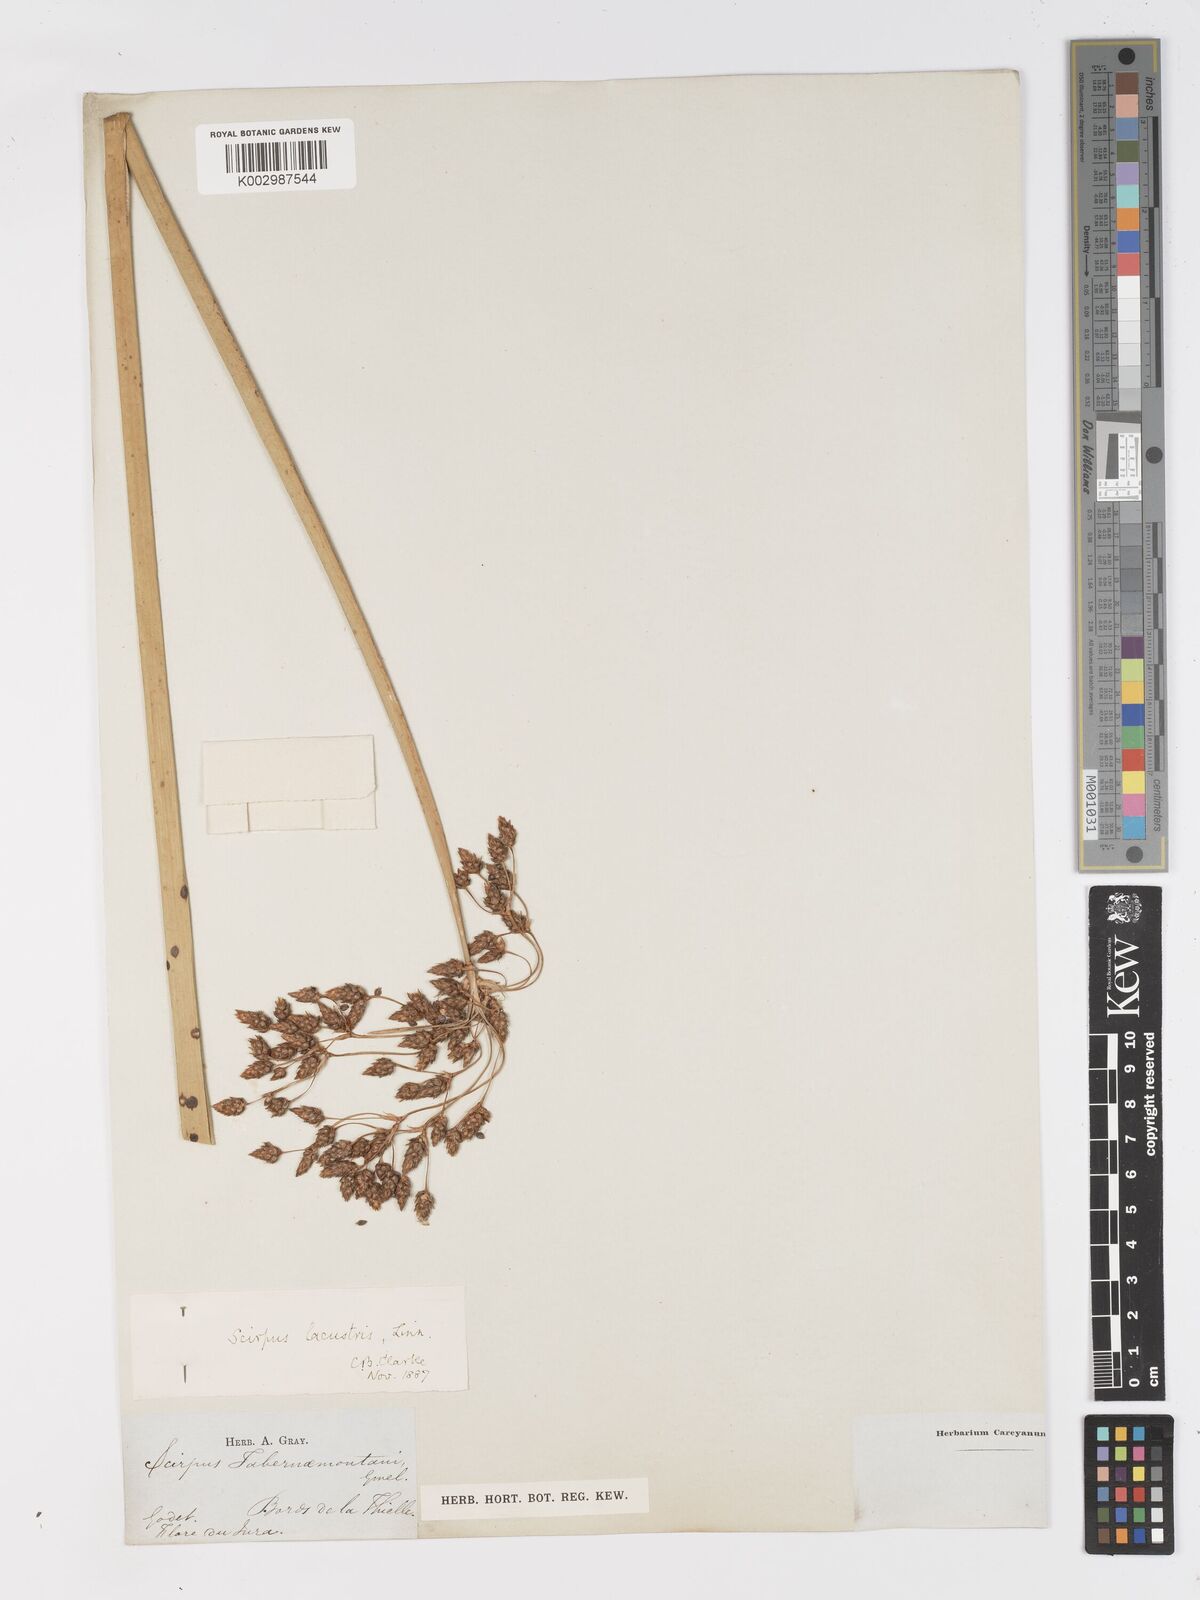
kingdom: Plantae
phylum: Tracheophyta
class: Liliopsida
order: Poales
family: Cyperaceae
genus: Schoenoplectus
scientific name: Schoenoplectus lacustris
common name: Common club-rush
